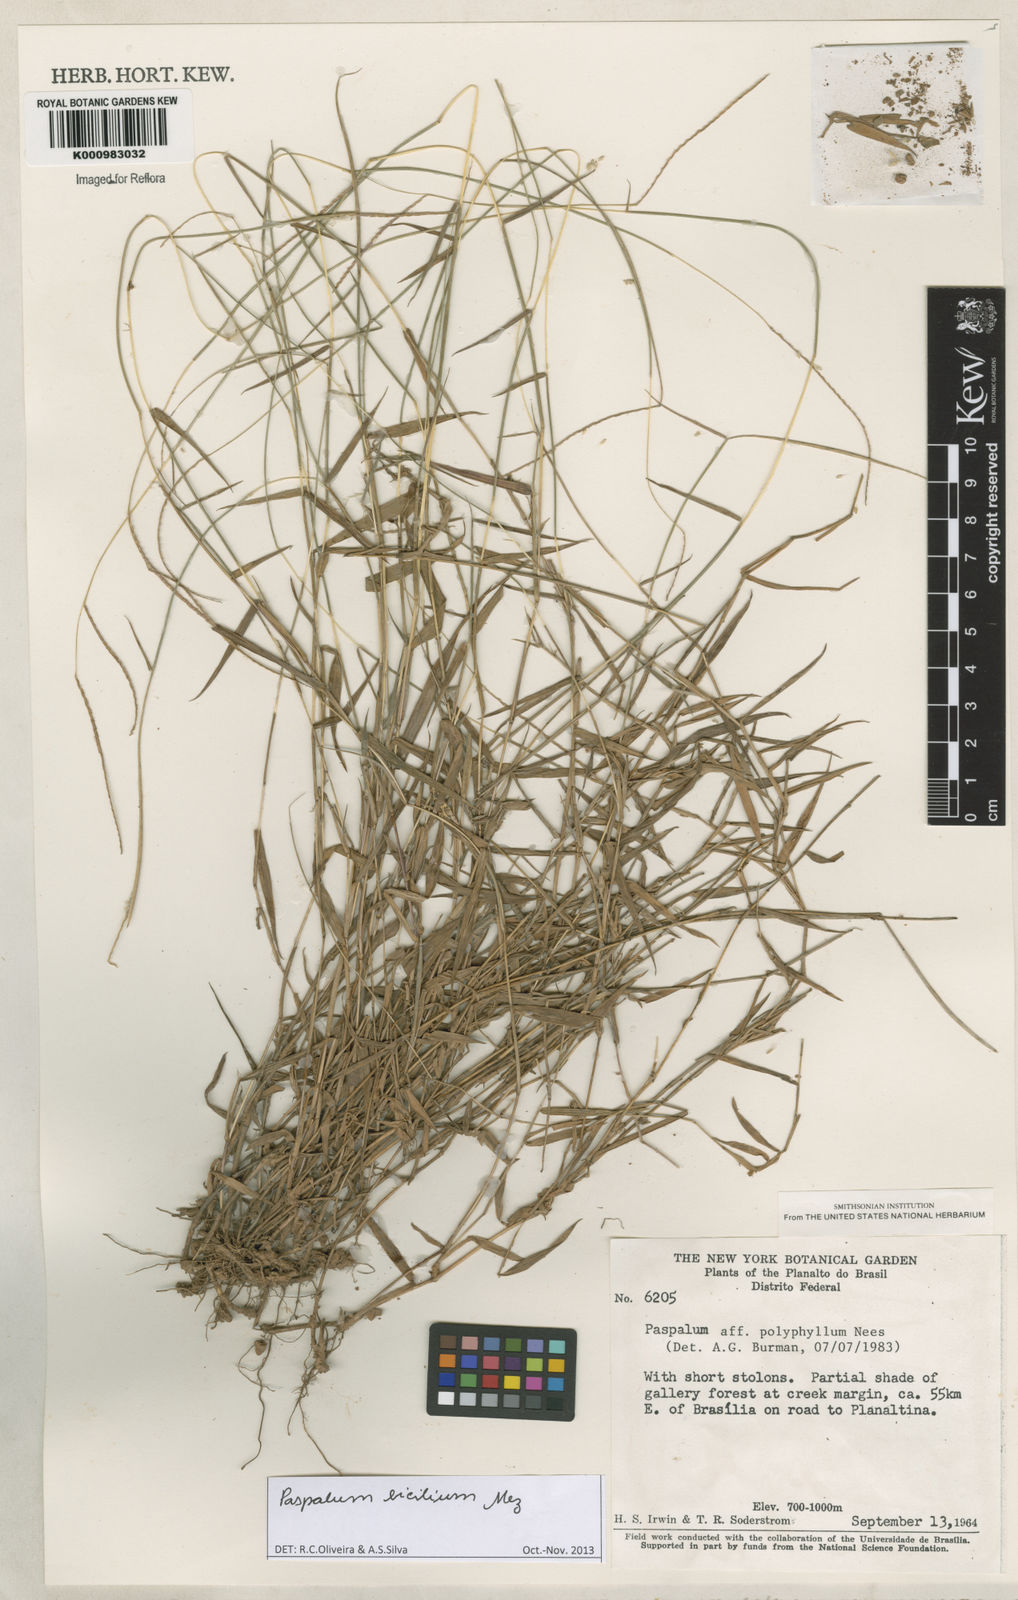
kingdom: Plantae
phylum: Tracheophyta
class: Liliopsida
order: Poales
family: Poaceae
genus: Paspalum
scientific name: Paspalum polyphyllum
